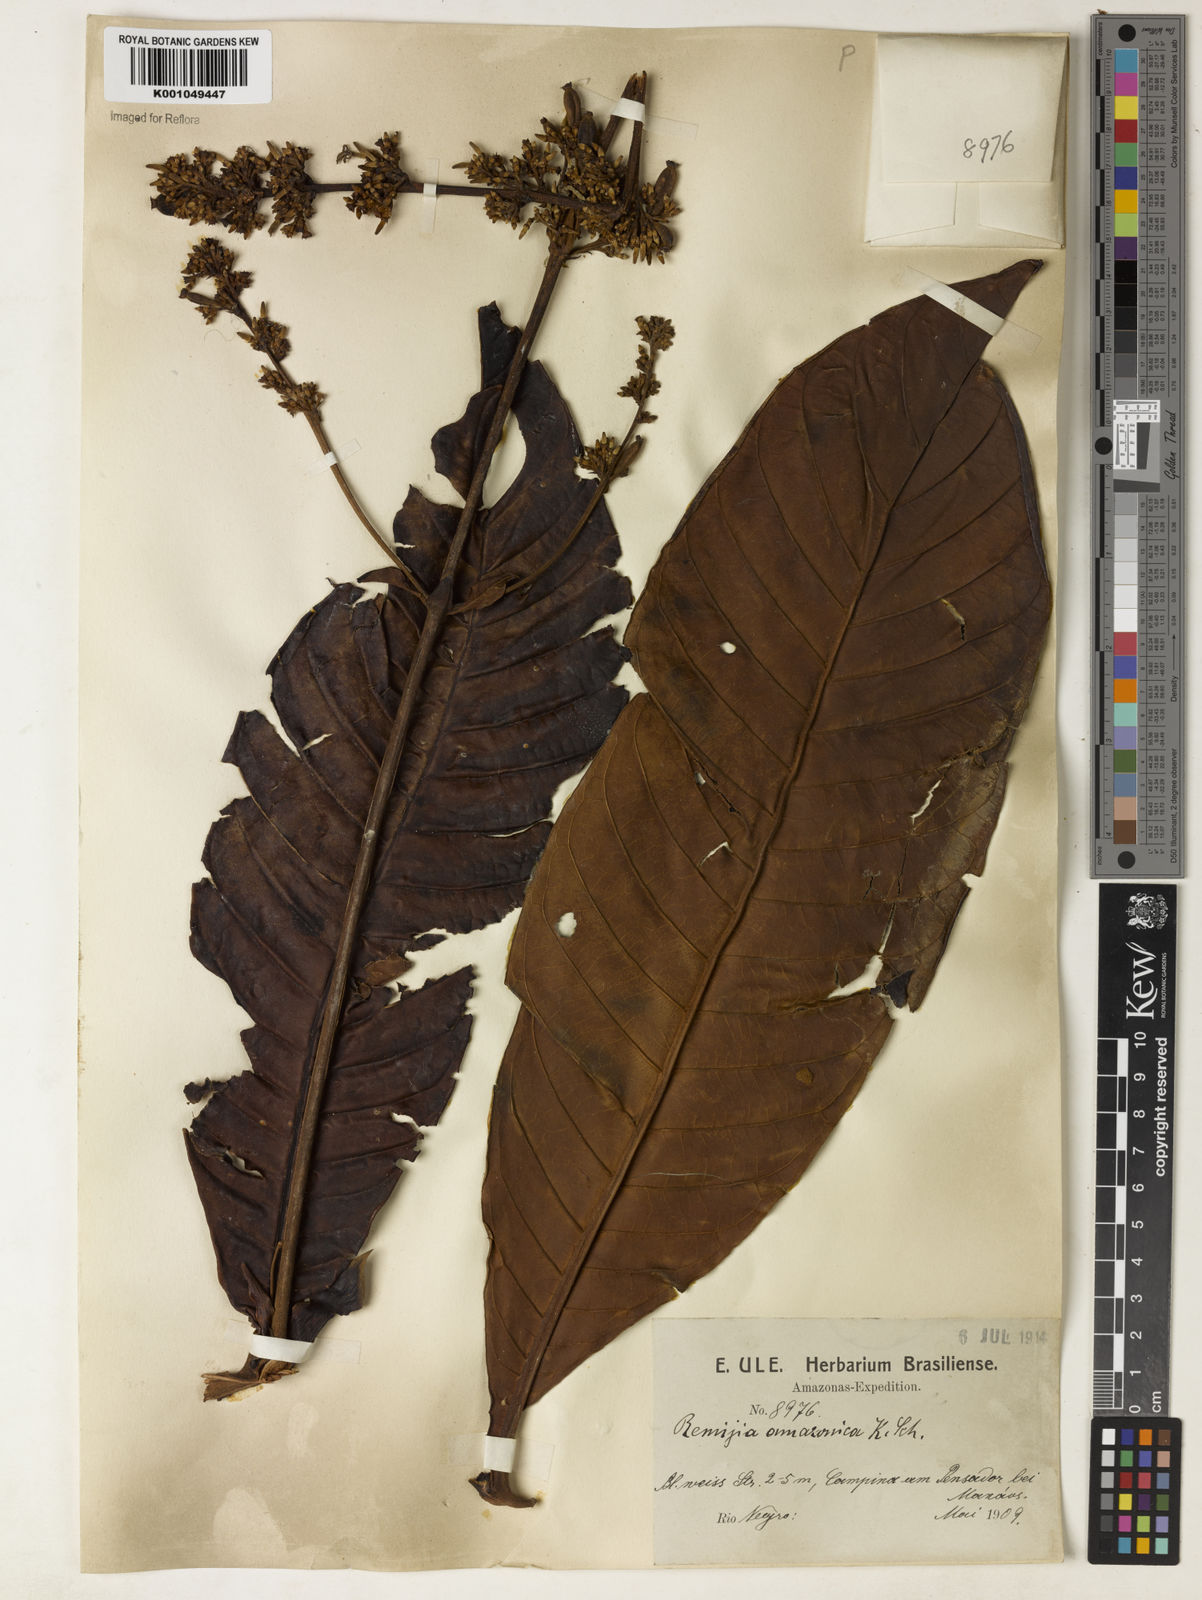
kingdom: Plantae
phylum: Tracheophyta
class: Magnoliopsida
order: Gentianales
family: Rubiaceae
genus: Remijia
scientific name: Remijia amazonica
